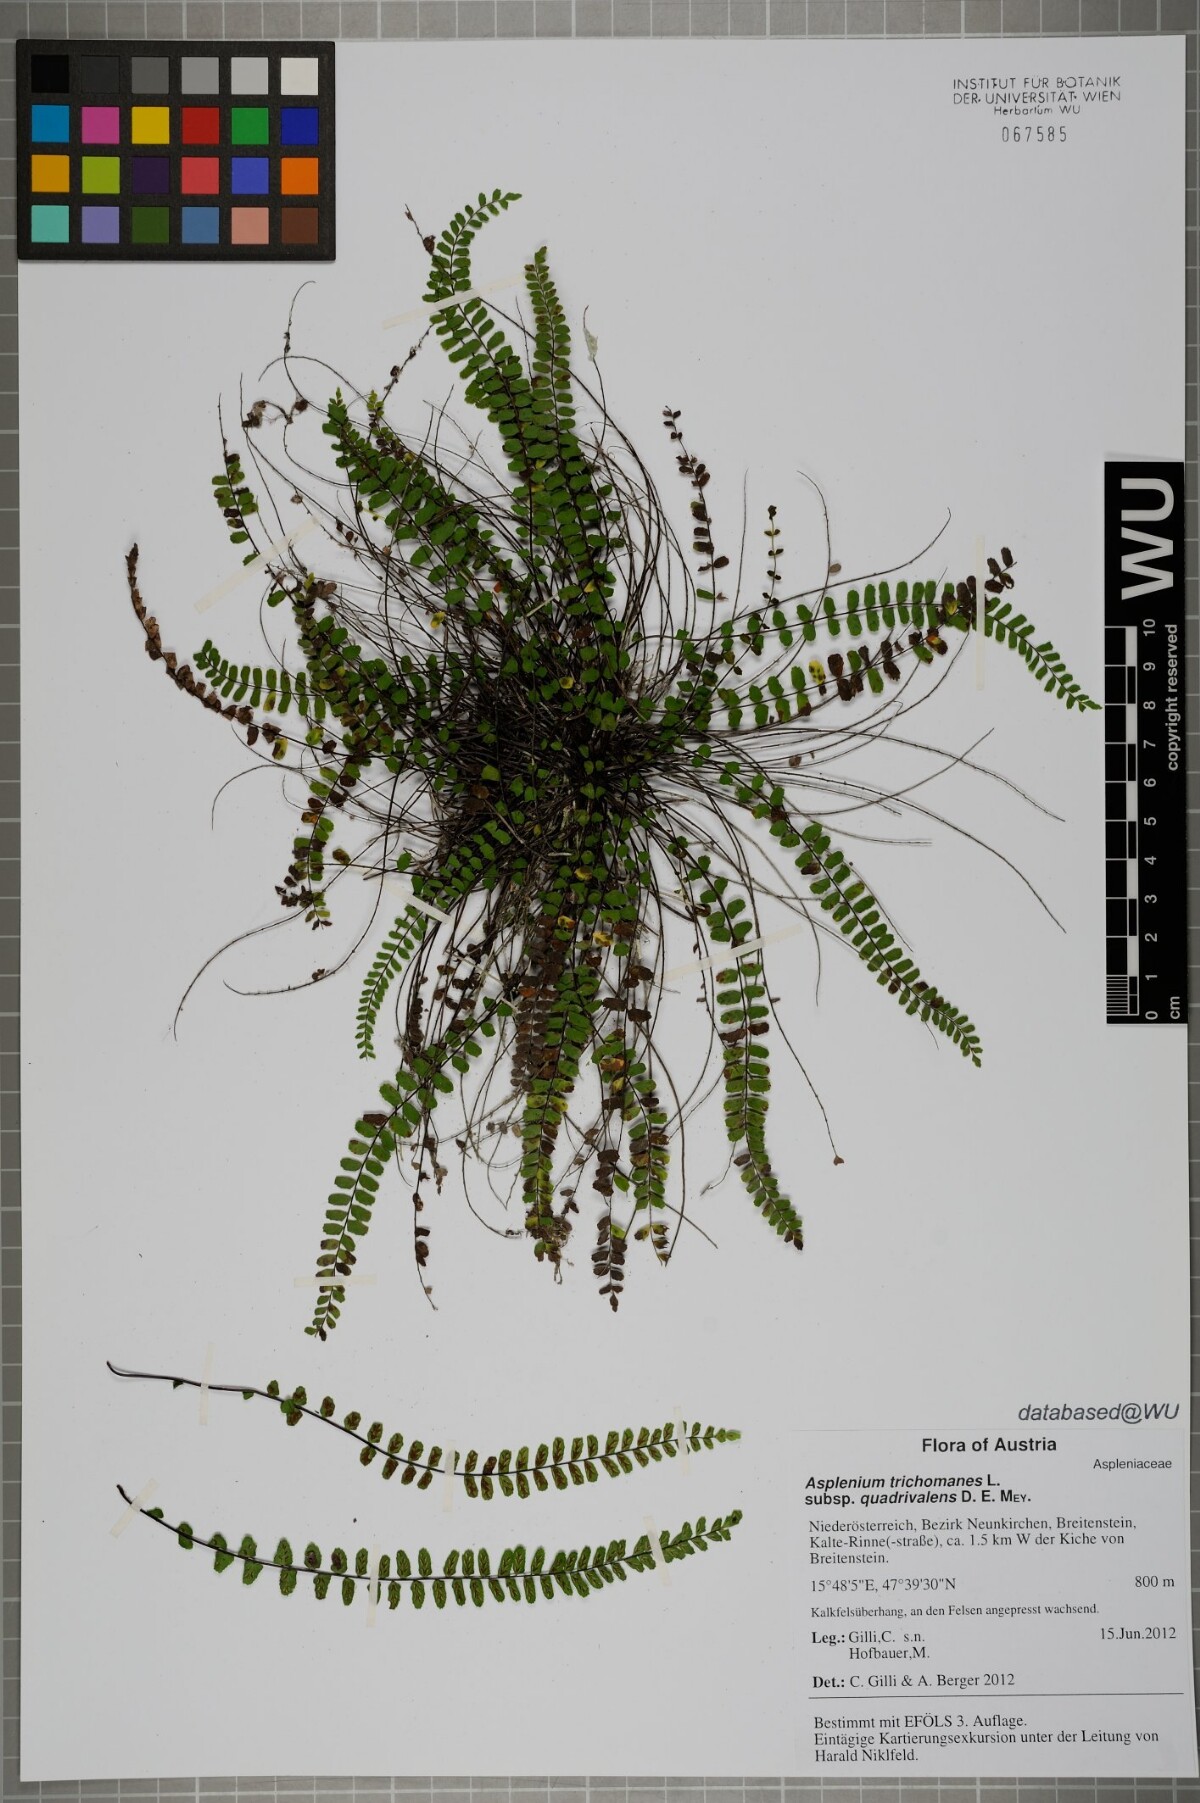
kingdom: Plantae
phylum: Tracheophyta
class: Polypodiopsida
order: Polypodiales
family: Aspleniaceae
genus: Asplenium
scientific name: Asplenium quadrivalens
